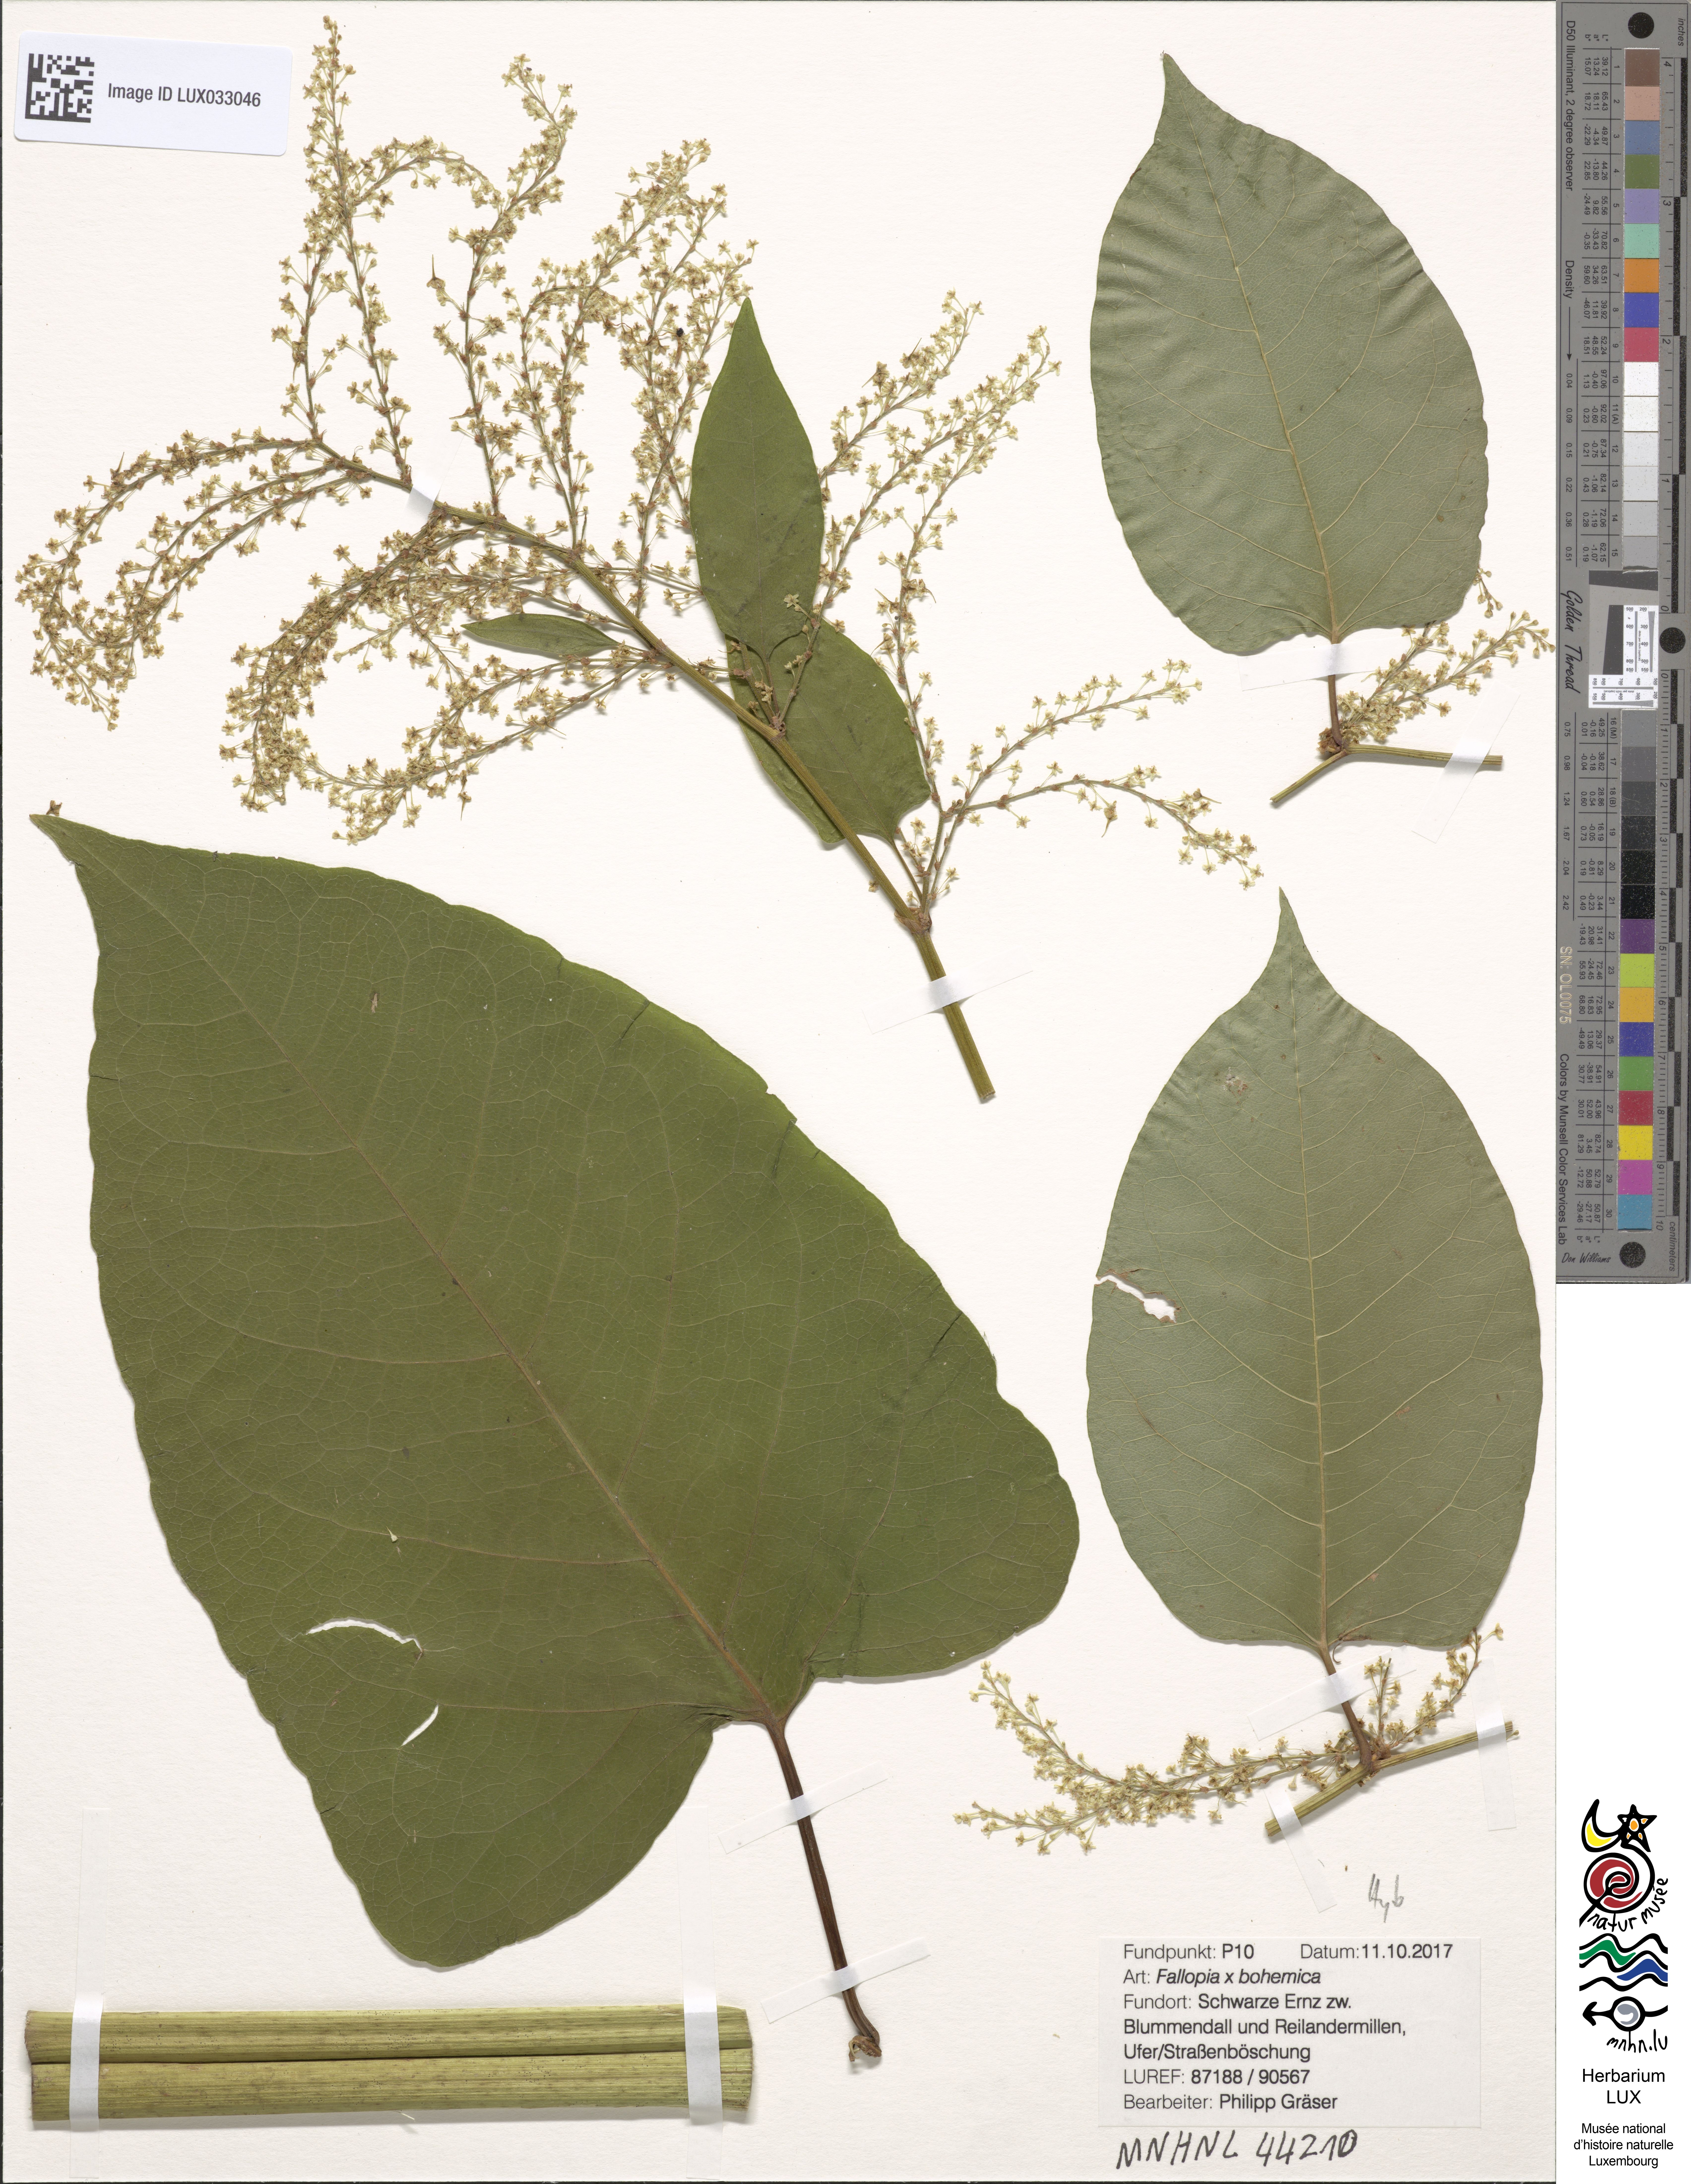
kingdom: Plantae
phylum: Tracheophyta
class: Magnoliopsida
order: Caryophyllales
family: Polygonaceae
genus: Reynoutria
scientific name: Reynoutria bohemica
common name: Bohemian knotweed
